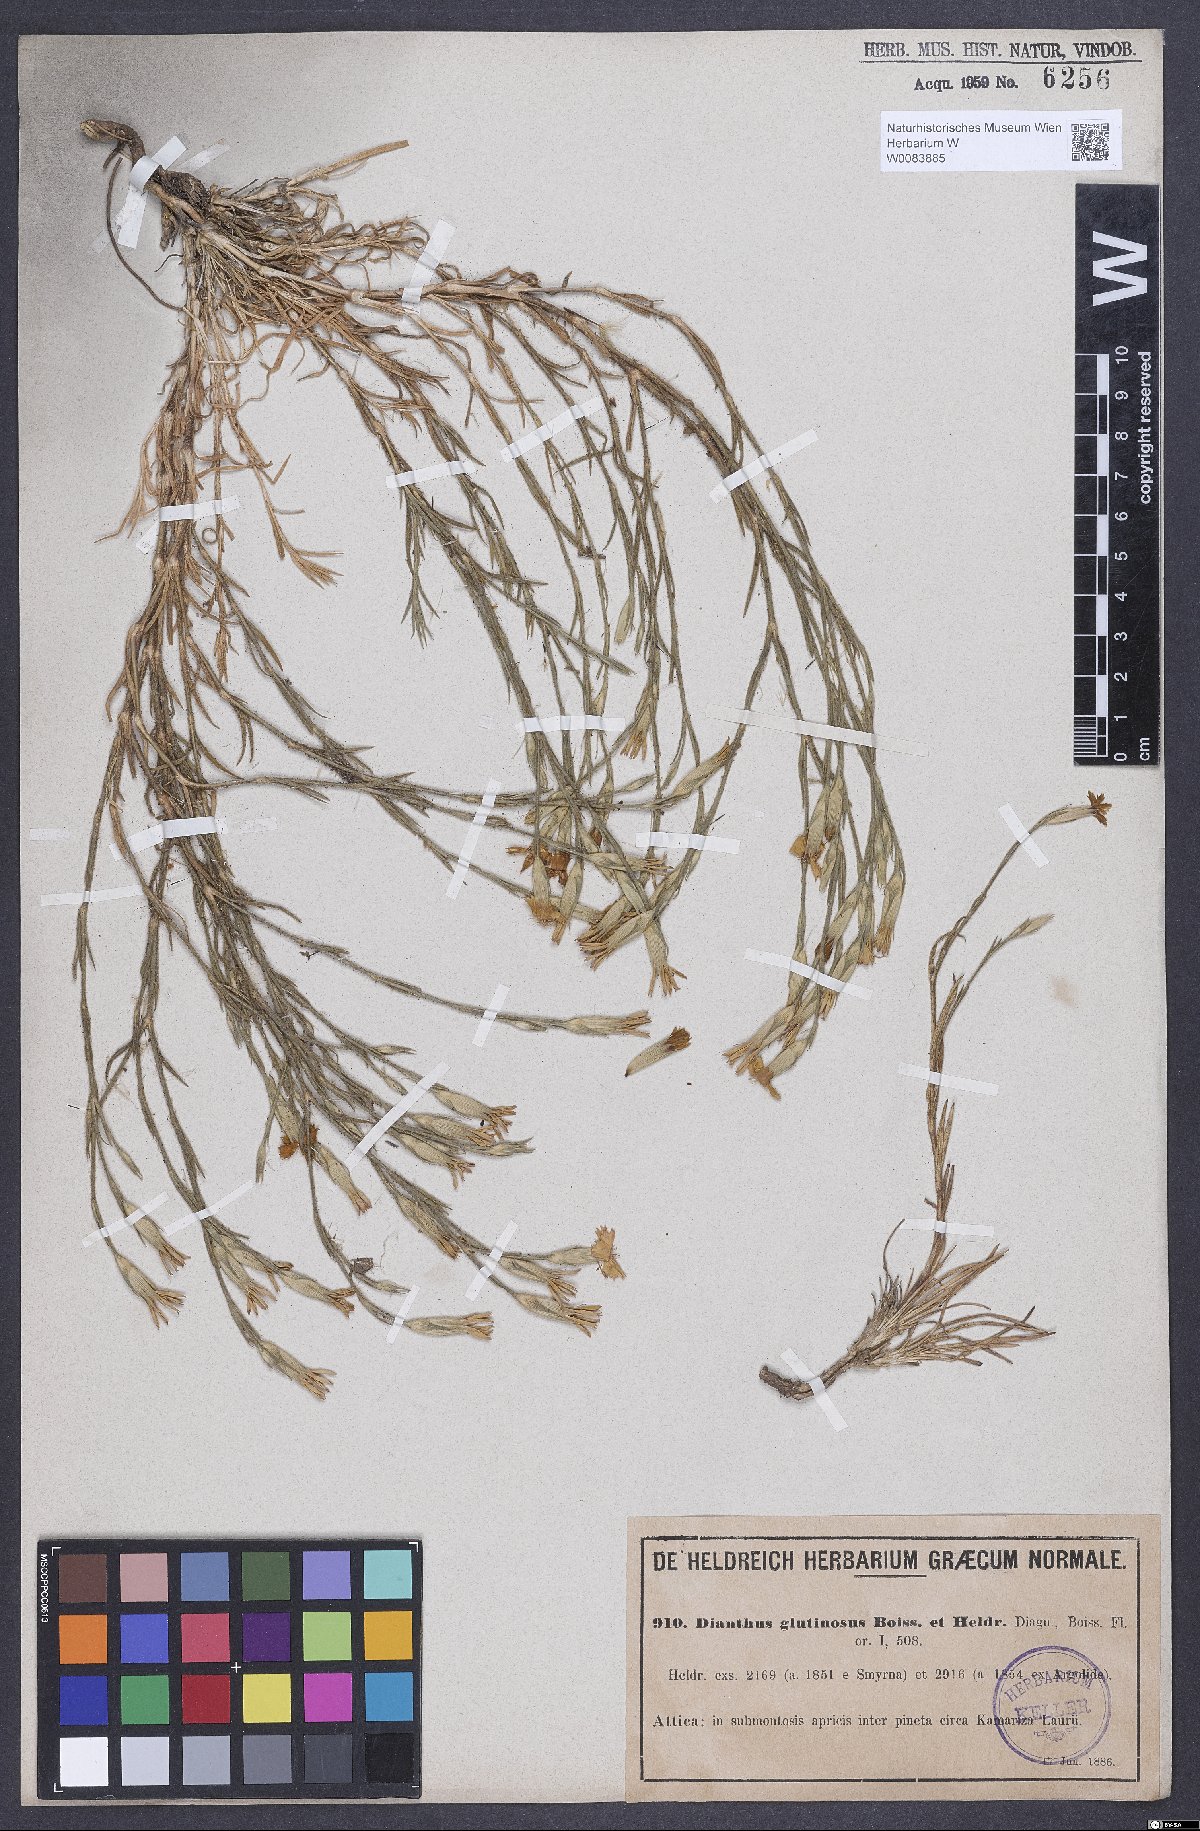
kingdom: Plantae
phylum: Tracheophyta
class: Magnoliopsida
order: Caryophyllales
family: Caryophyllaceae
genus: Dianthus
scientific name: Dianthus glutinosus
